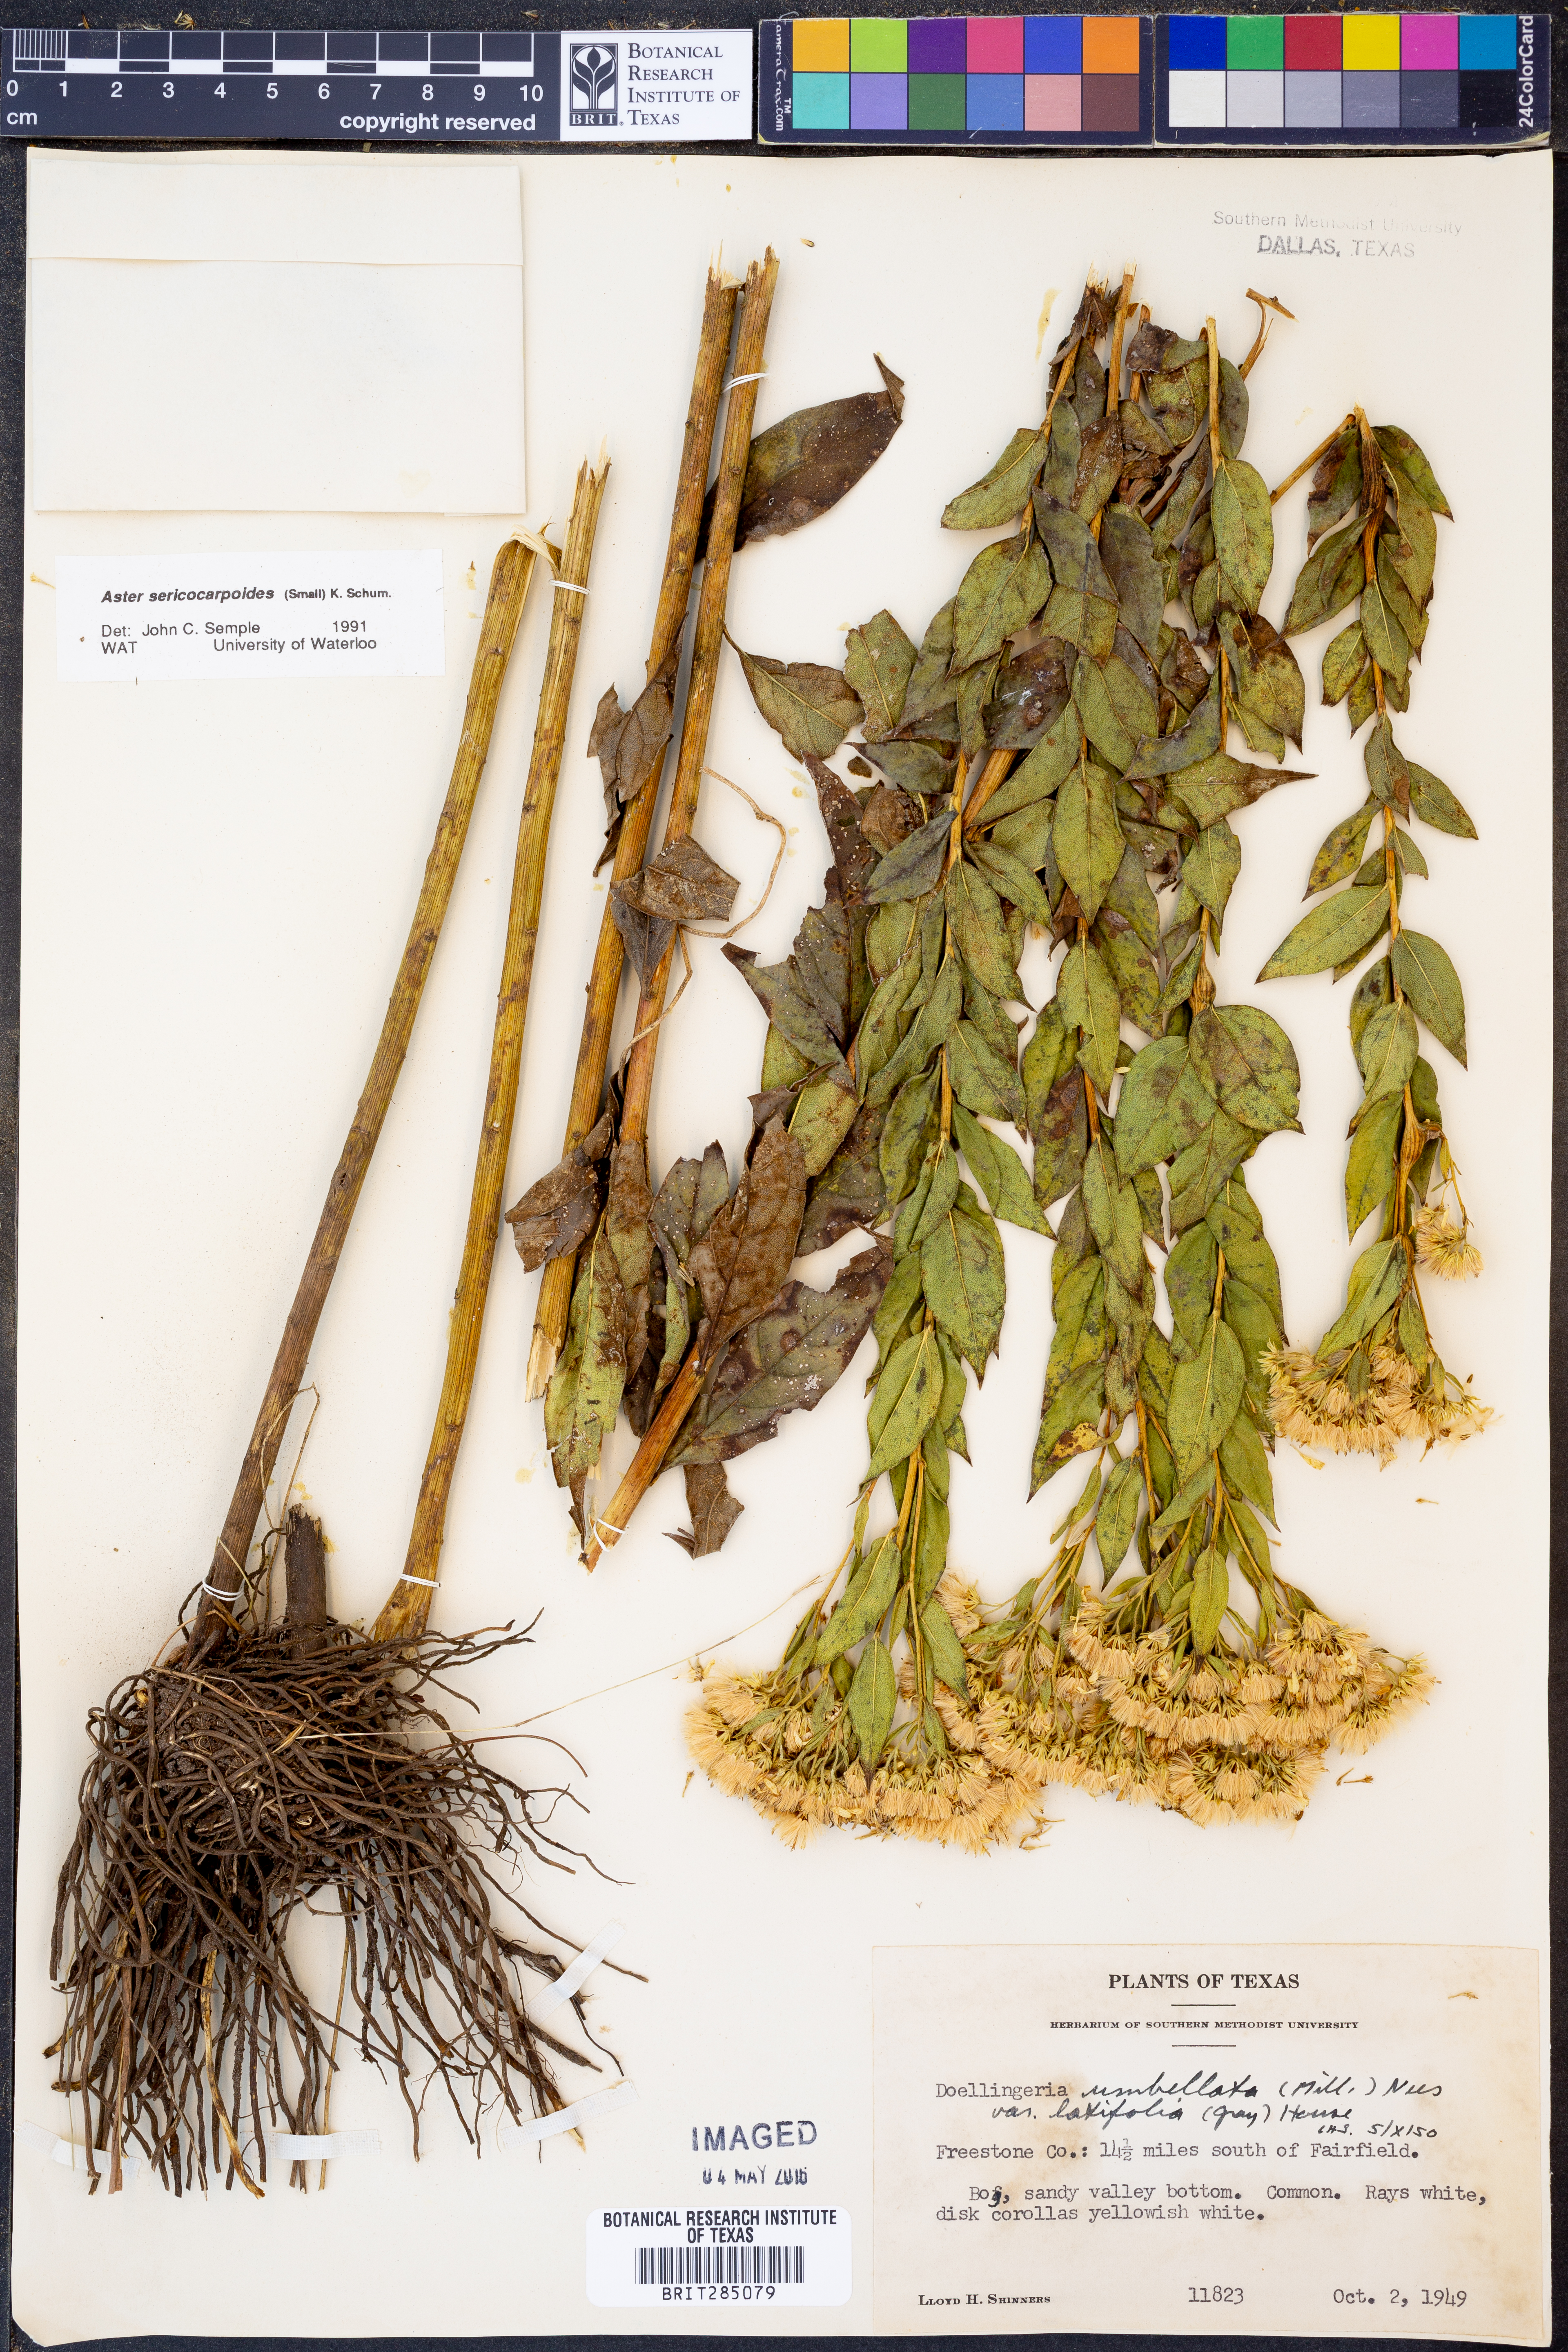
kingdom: Plantae
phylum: Tracheophyta
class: Magnoliopsida
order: Asterales
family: Asteraceae
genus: Doellingeria
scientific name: Doellingeria sericocarpoides
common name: Southern tall flat-top aster
